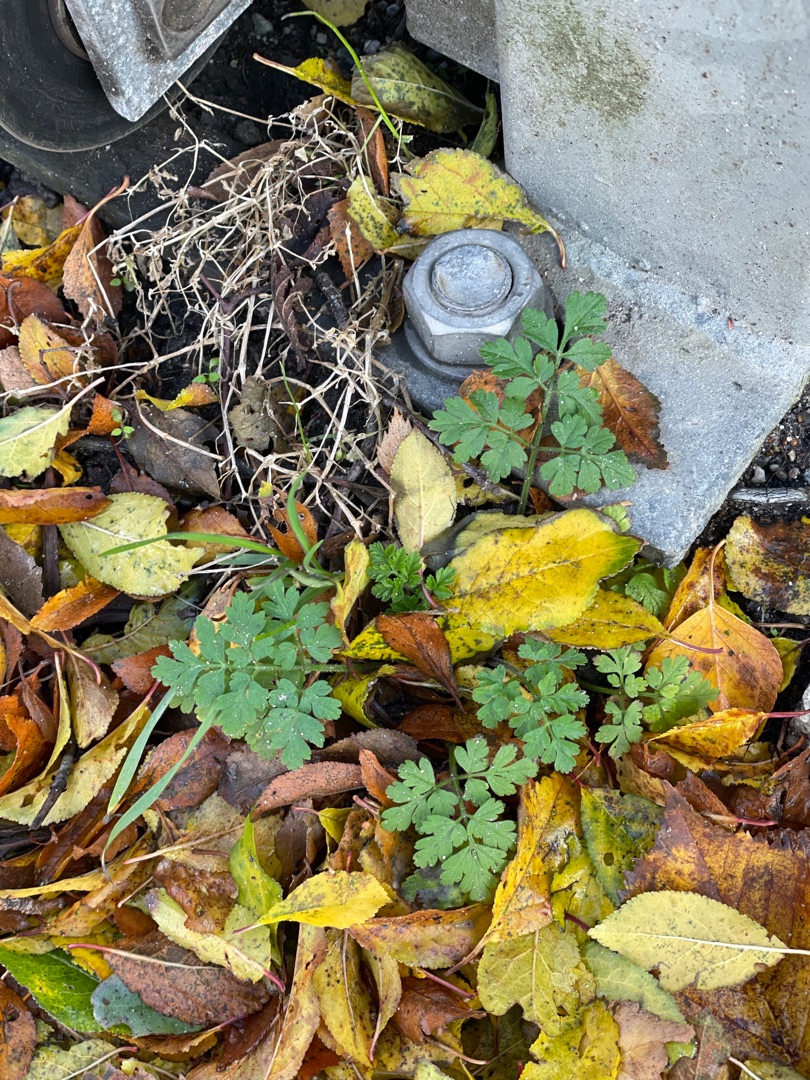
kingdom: Plantae
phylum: Tracheophyta
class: Magnoliopsida
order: Apiales
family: Apiaceae
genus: Chaerophyllum
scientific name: Chaerophyllum temulum
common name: Almindelig hulsvøb
